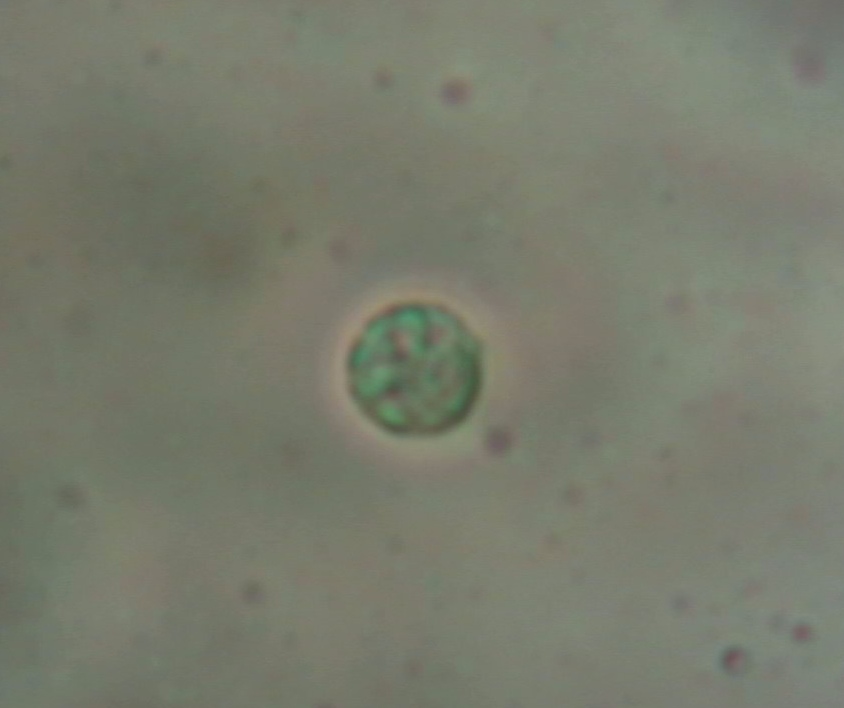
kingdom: Fungi
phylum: Basidiomycota
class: Agaricomycetes
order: Agaricales
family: Lyophyllaceae
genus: Tephrocybe
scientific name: Tephrocybe ambusta
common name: kul-gråblad
